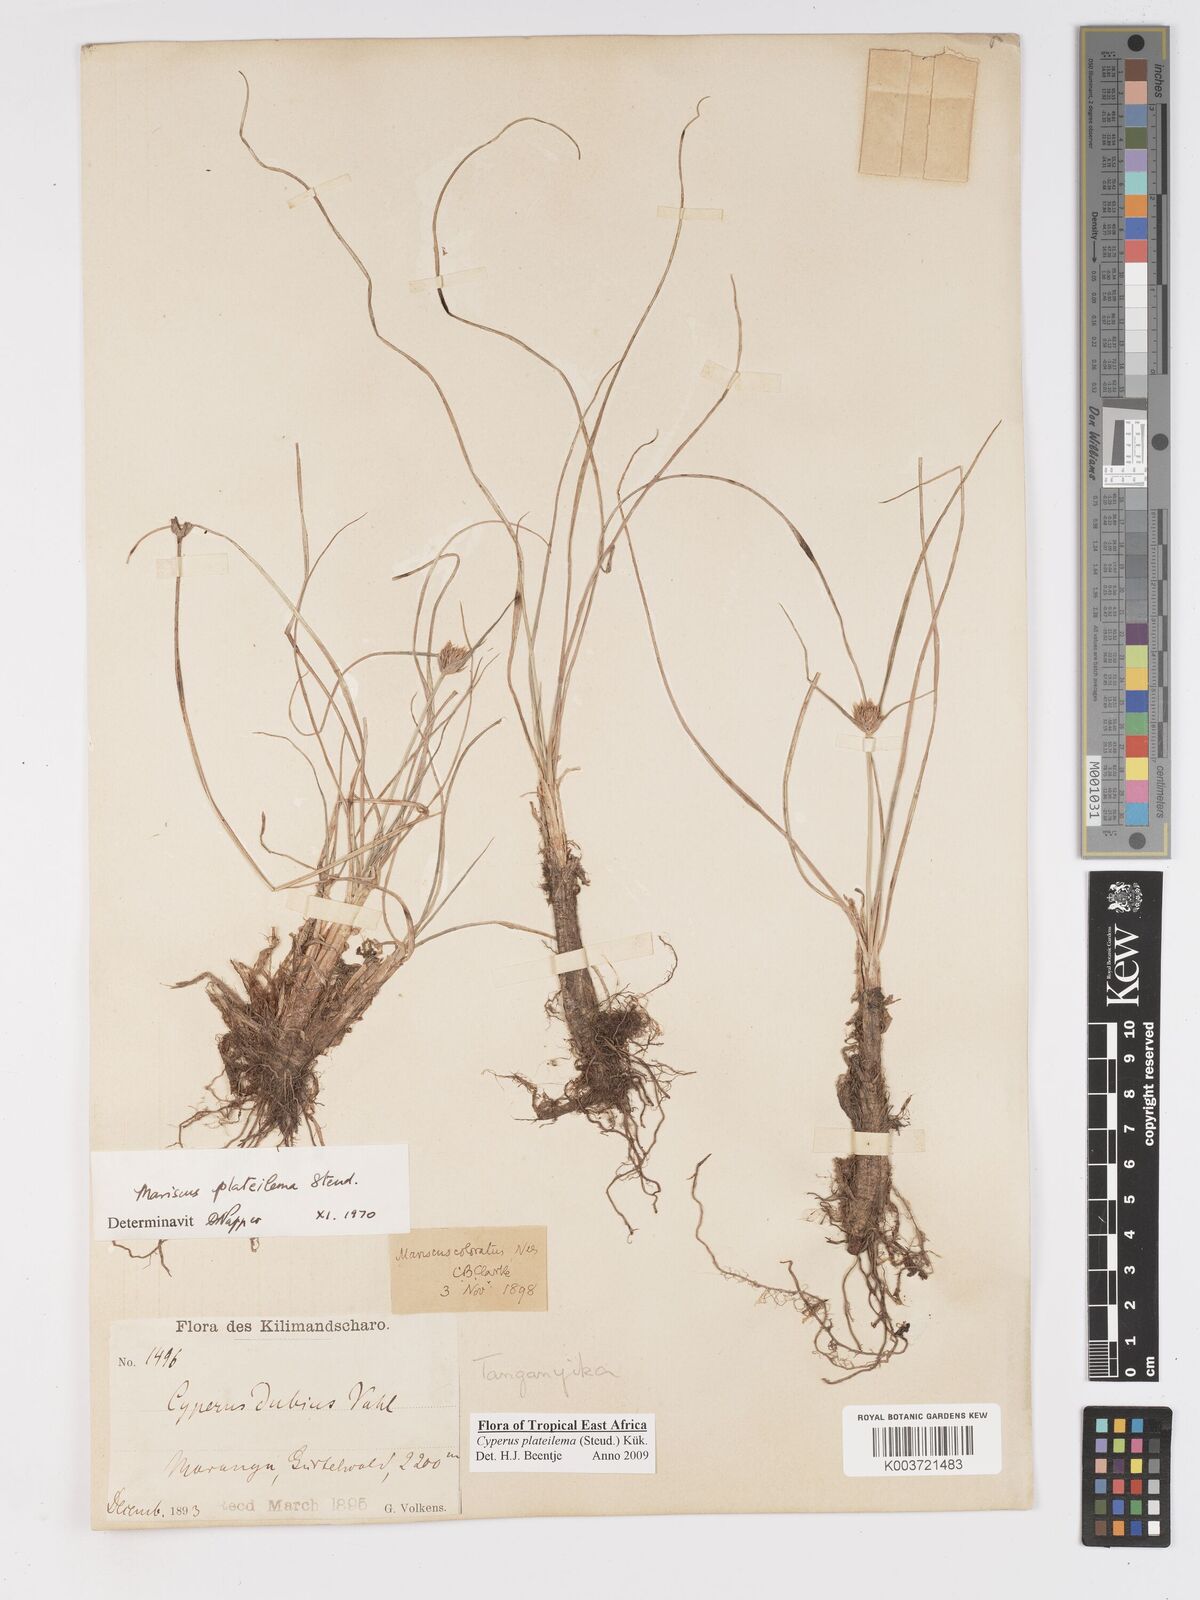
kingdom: Plantae
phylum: Tracheophyta
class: Liliopsida
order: Poales
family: Cyperaceae
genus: Cyperus
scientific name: Cyperus plateilema
